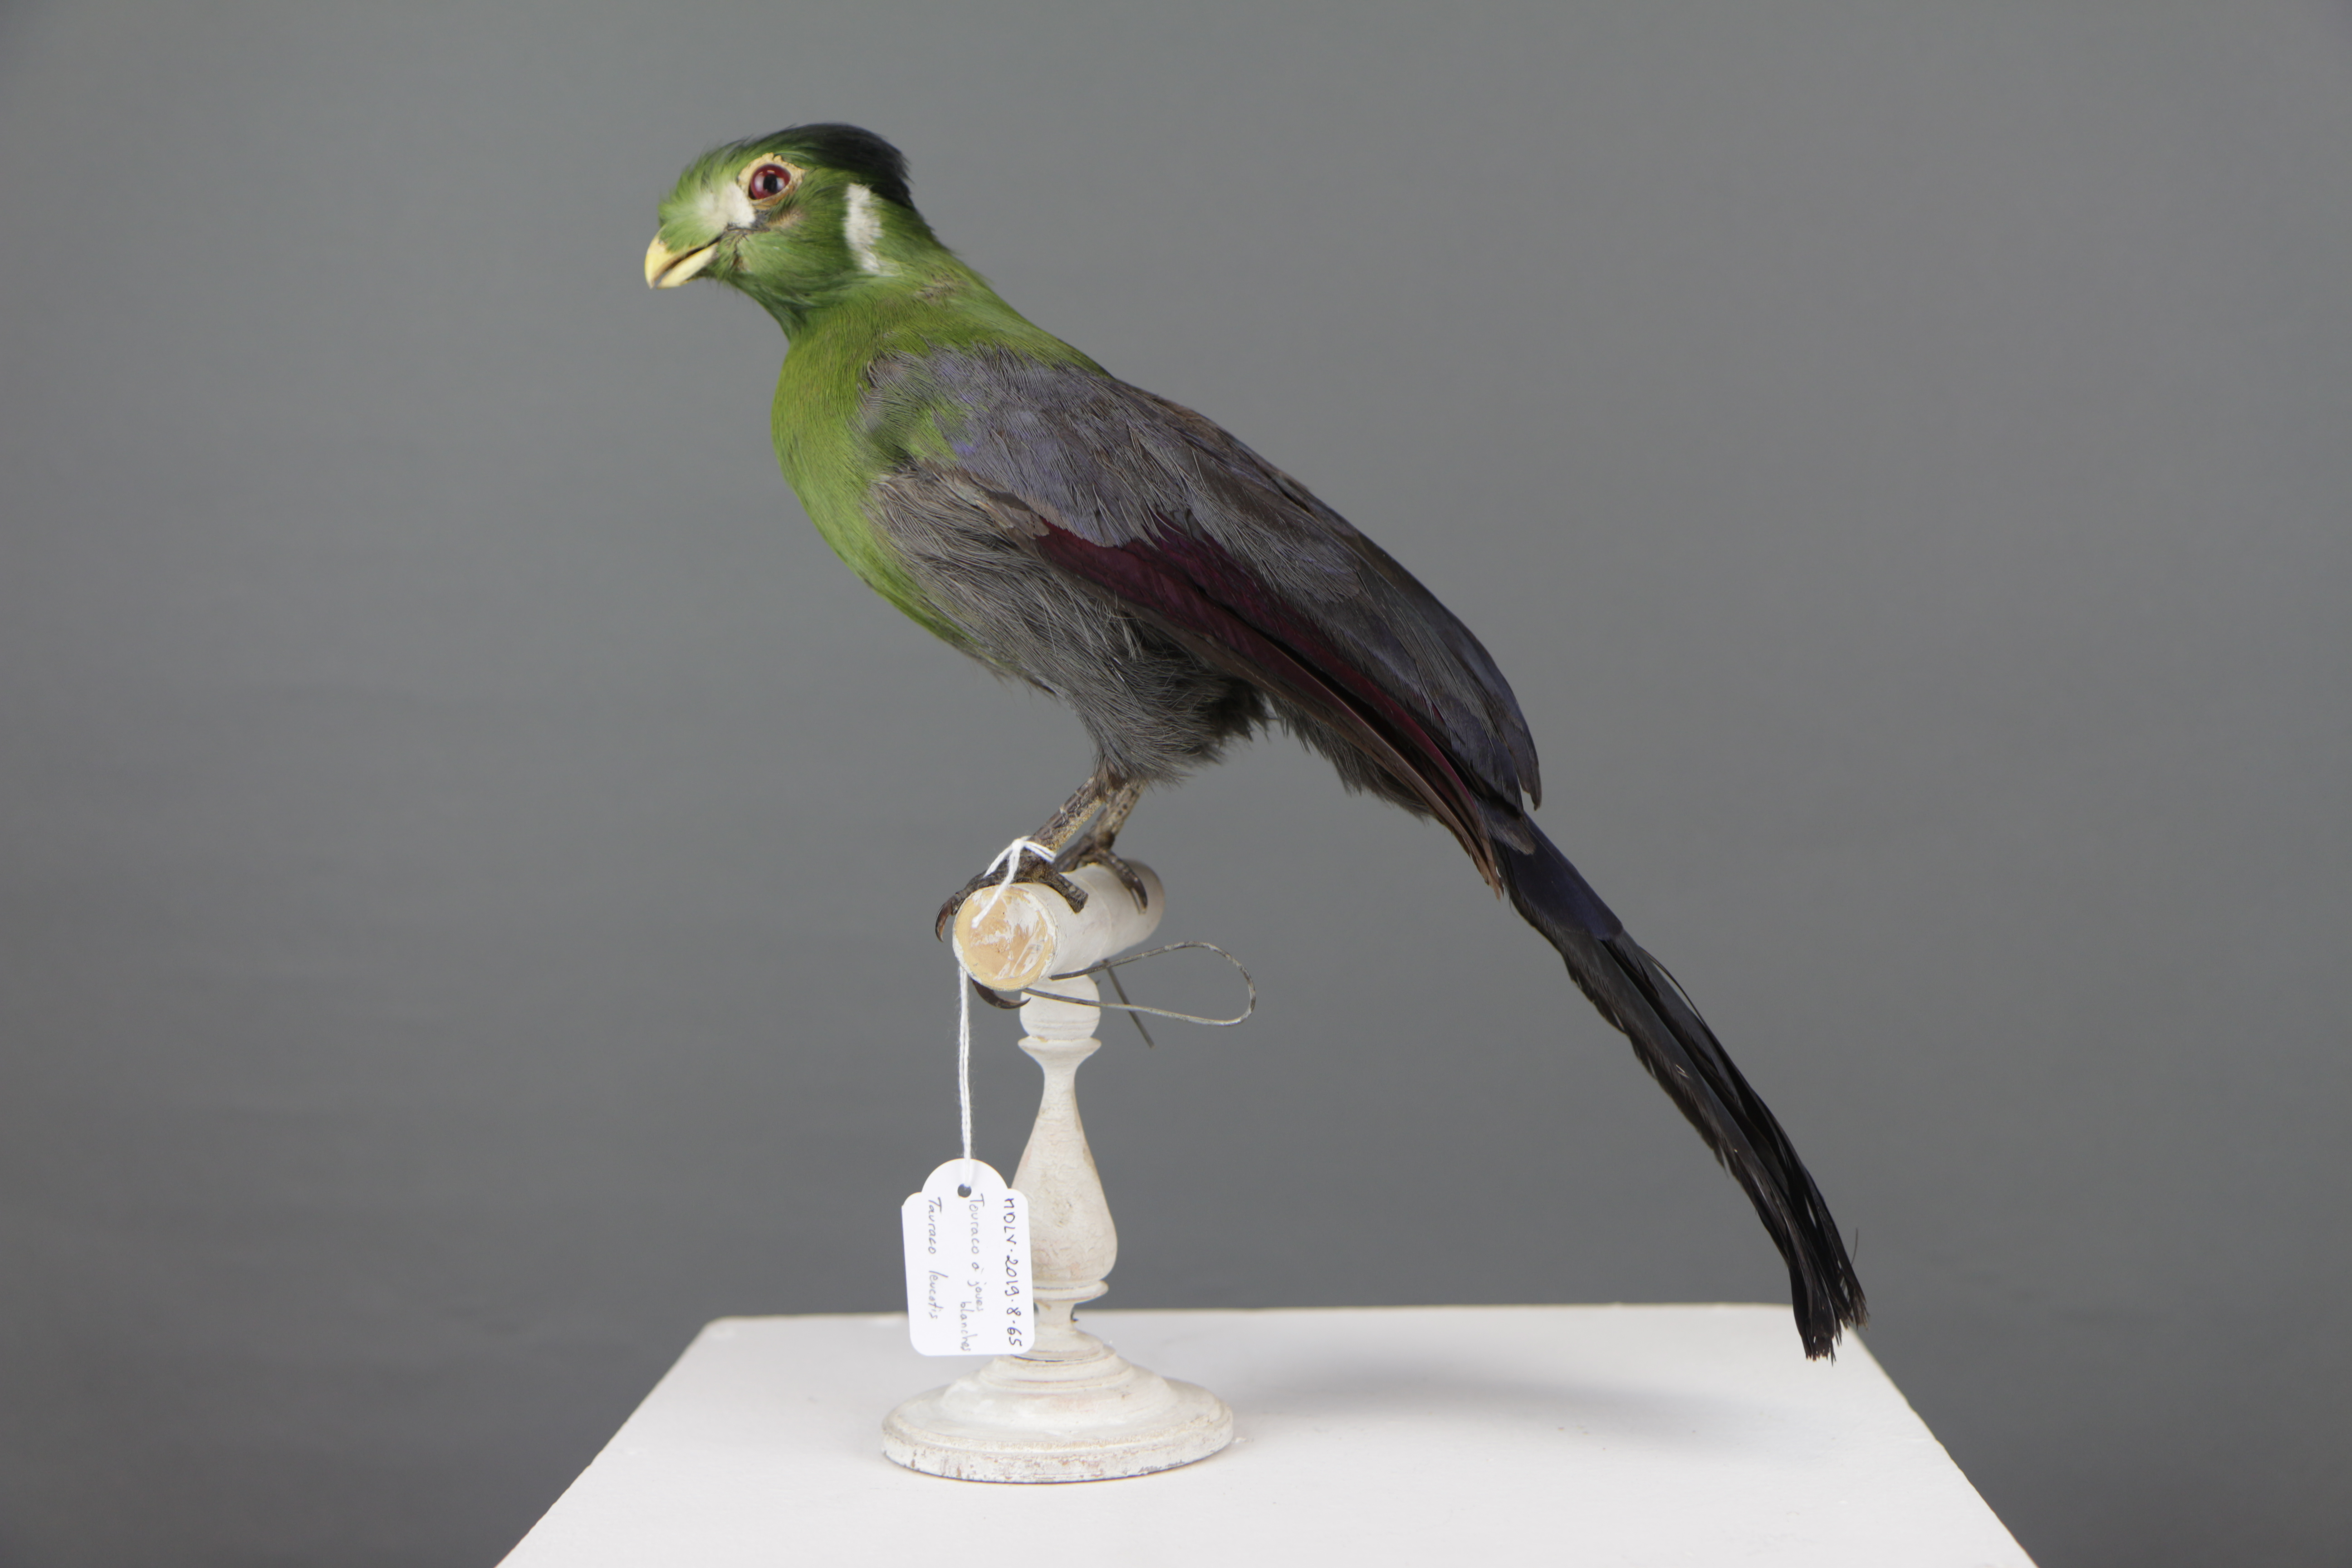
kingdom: Animalia
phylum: Chordata
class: Aves
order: Musophagiformes
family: Musophagidae
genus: Tauraco
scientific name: Tauraco leucotis
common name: White-cheeked turaco
